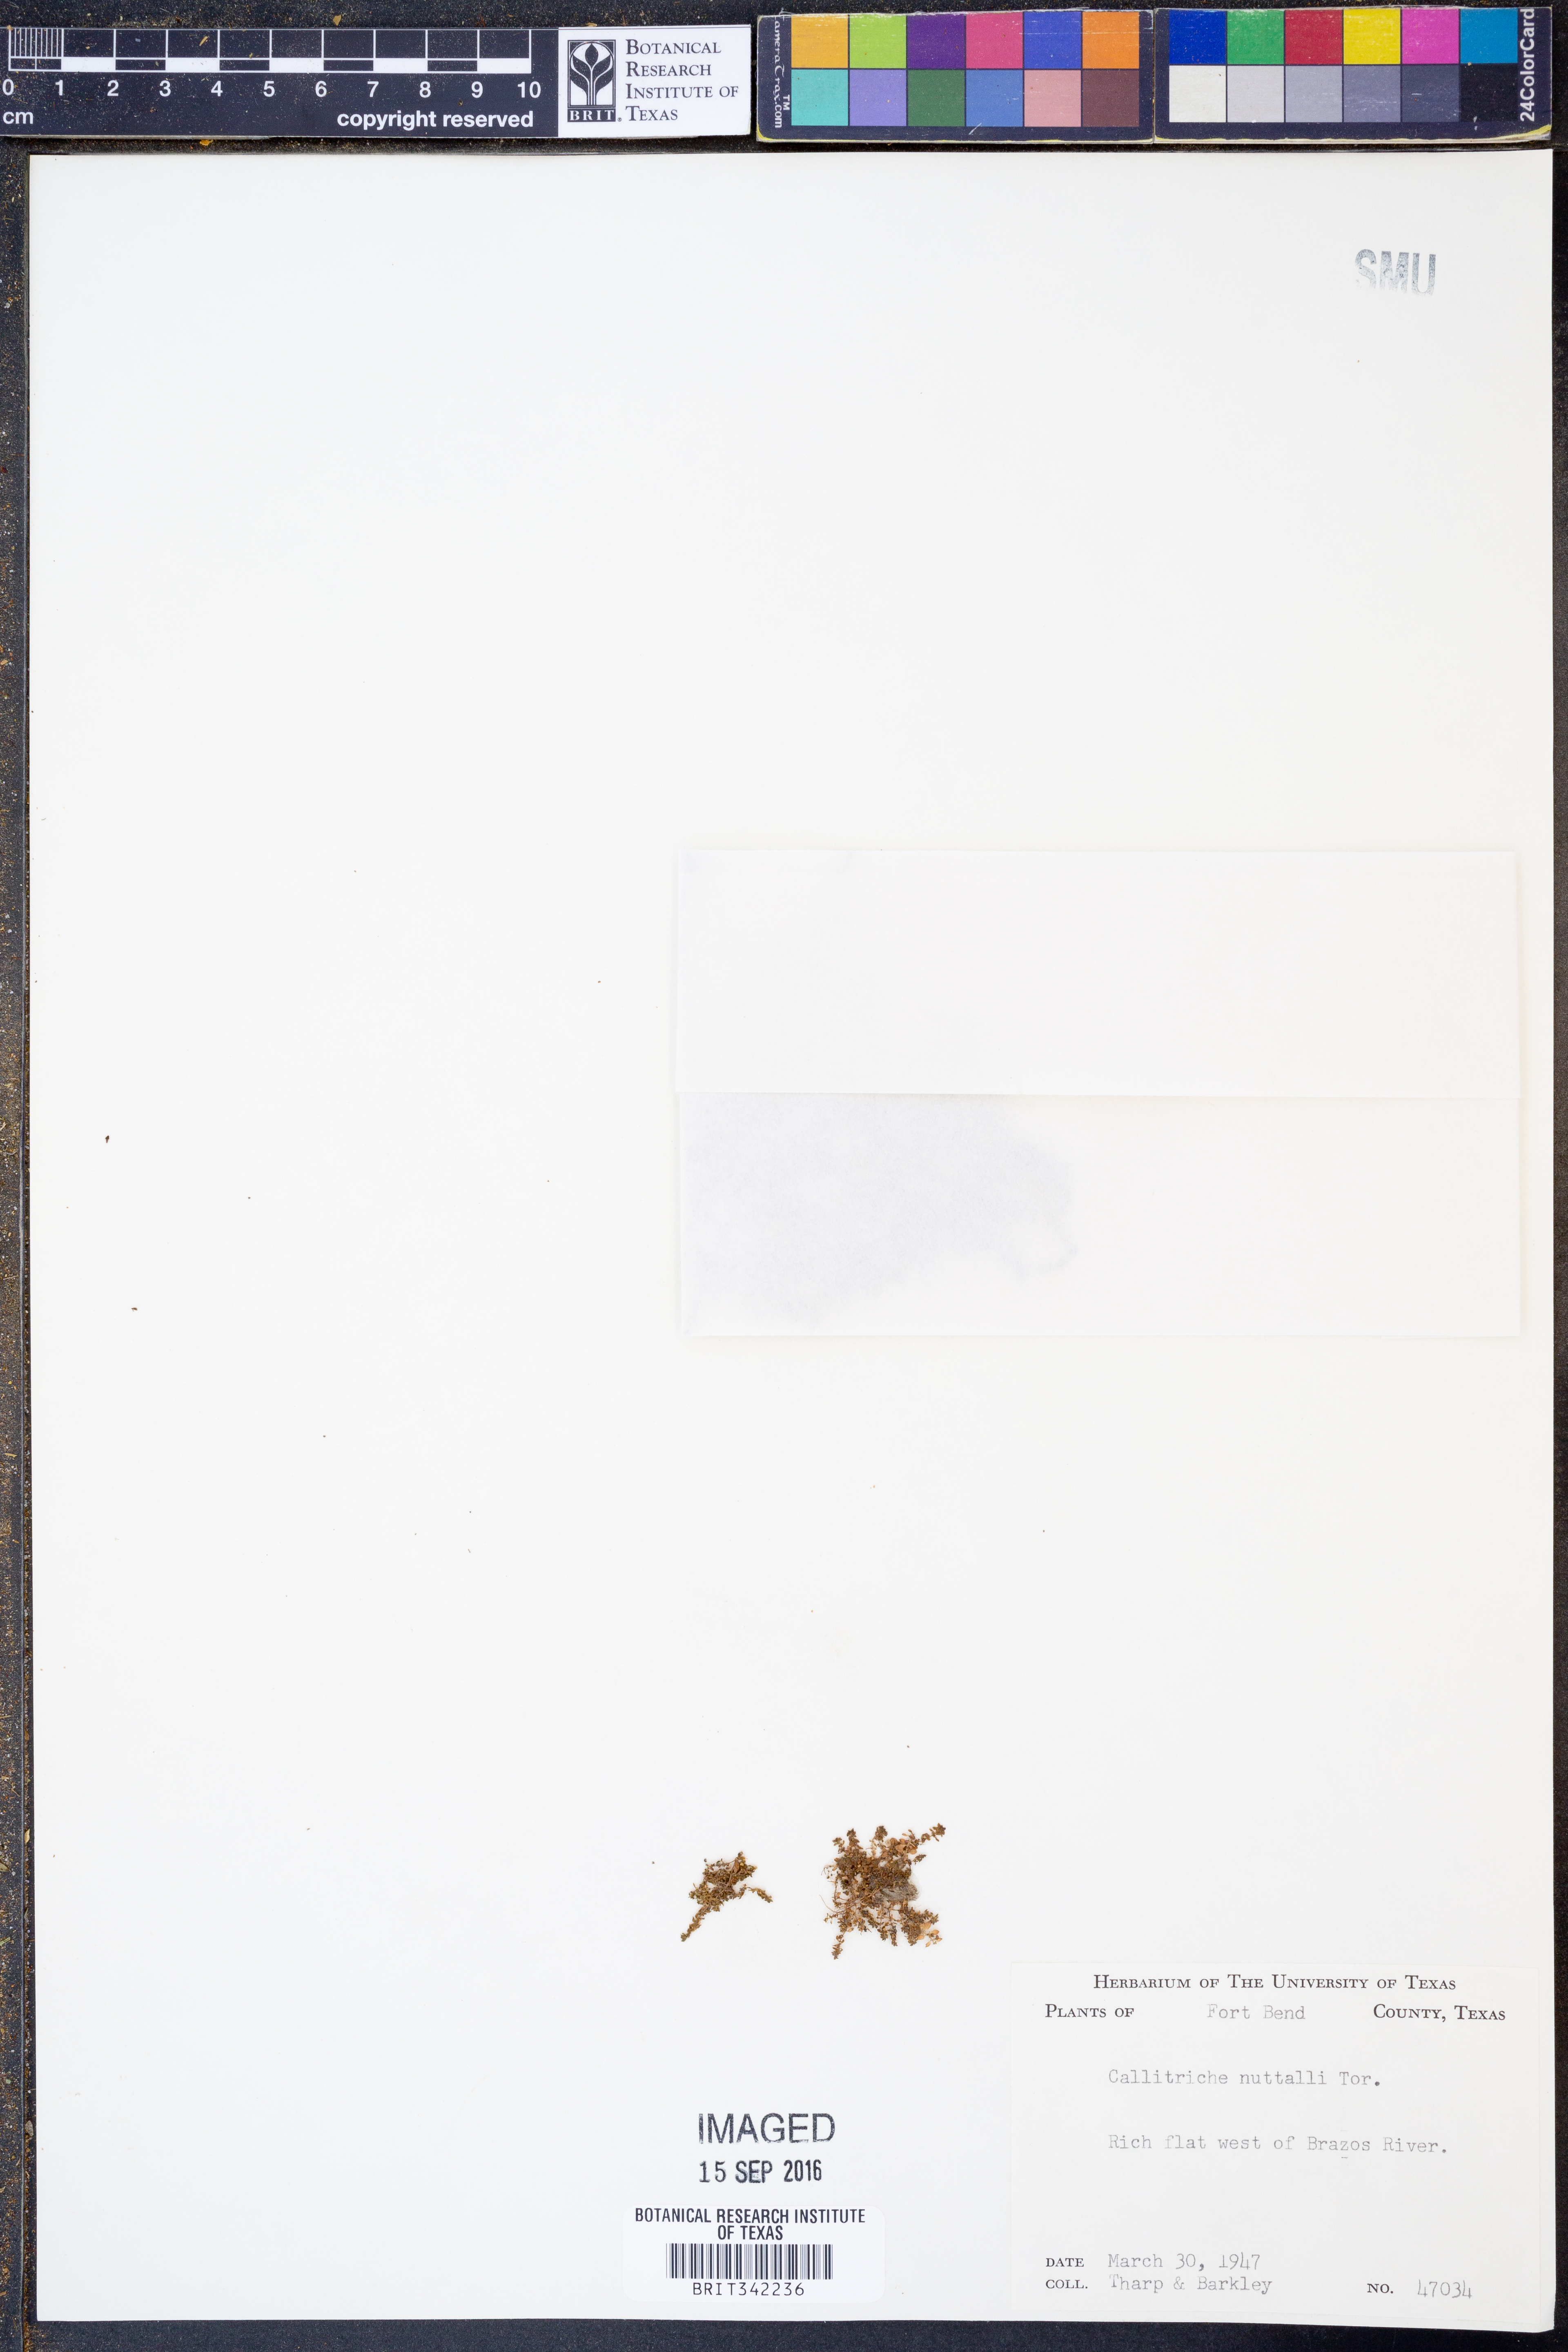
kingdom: Plantae
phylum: Tracheophyta
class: Magnoliopsida
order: Lamiales
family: Plantaginaceae
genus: Callitriche
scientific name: Callitriche pedunculosa
